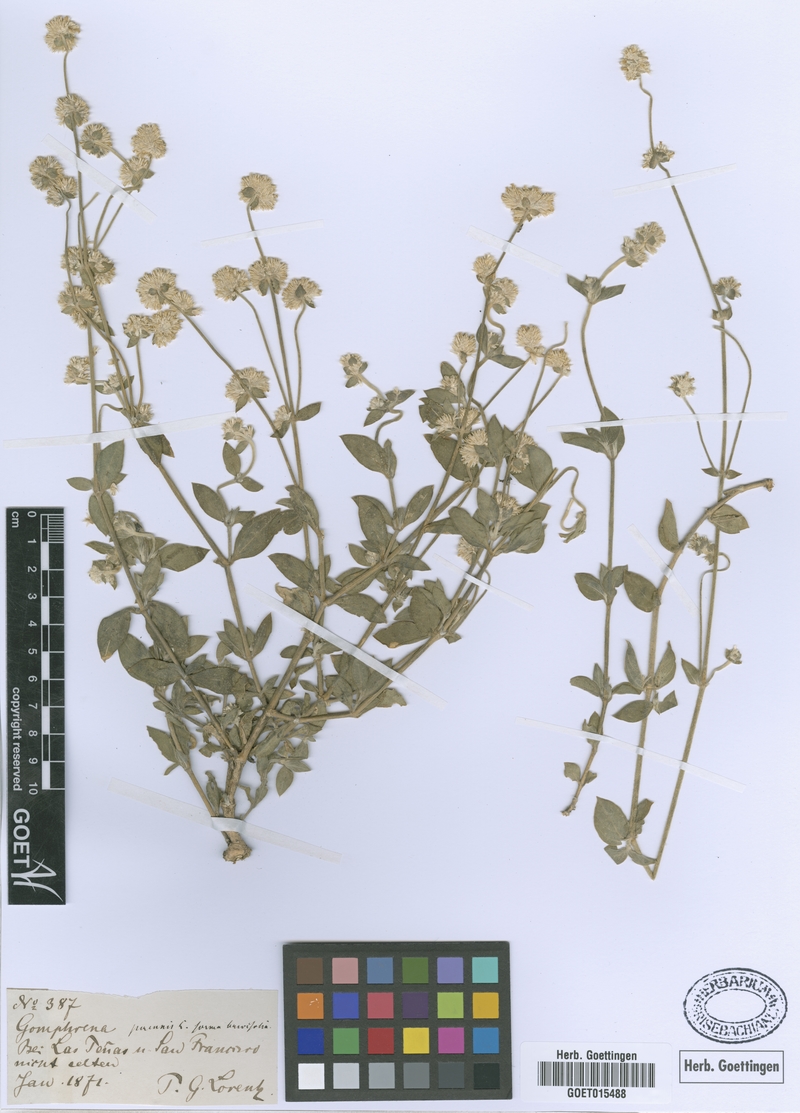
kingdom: Plantae
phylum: Tracheophyta
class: Magnoliopsida
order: Caryophyllales
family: Amaranthaceae
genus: Gomphrena
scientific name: Gomphrena perennis
